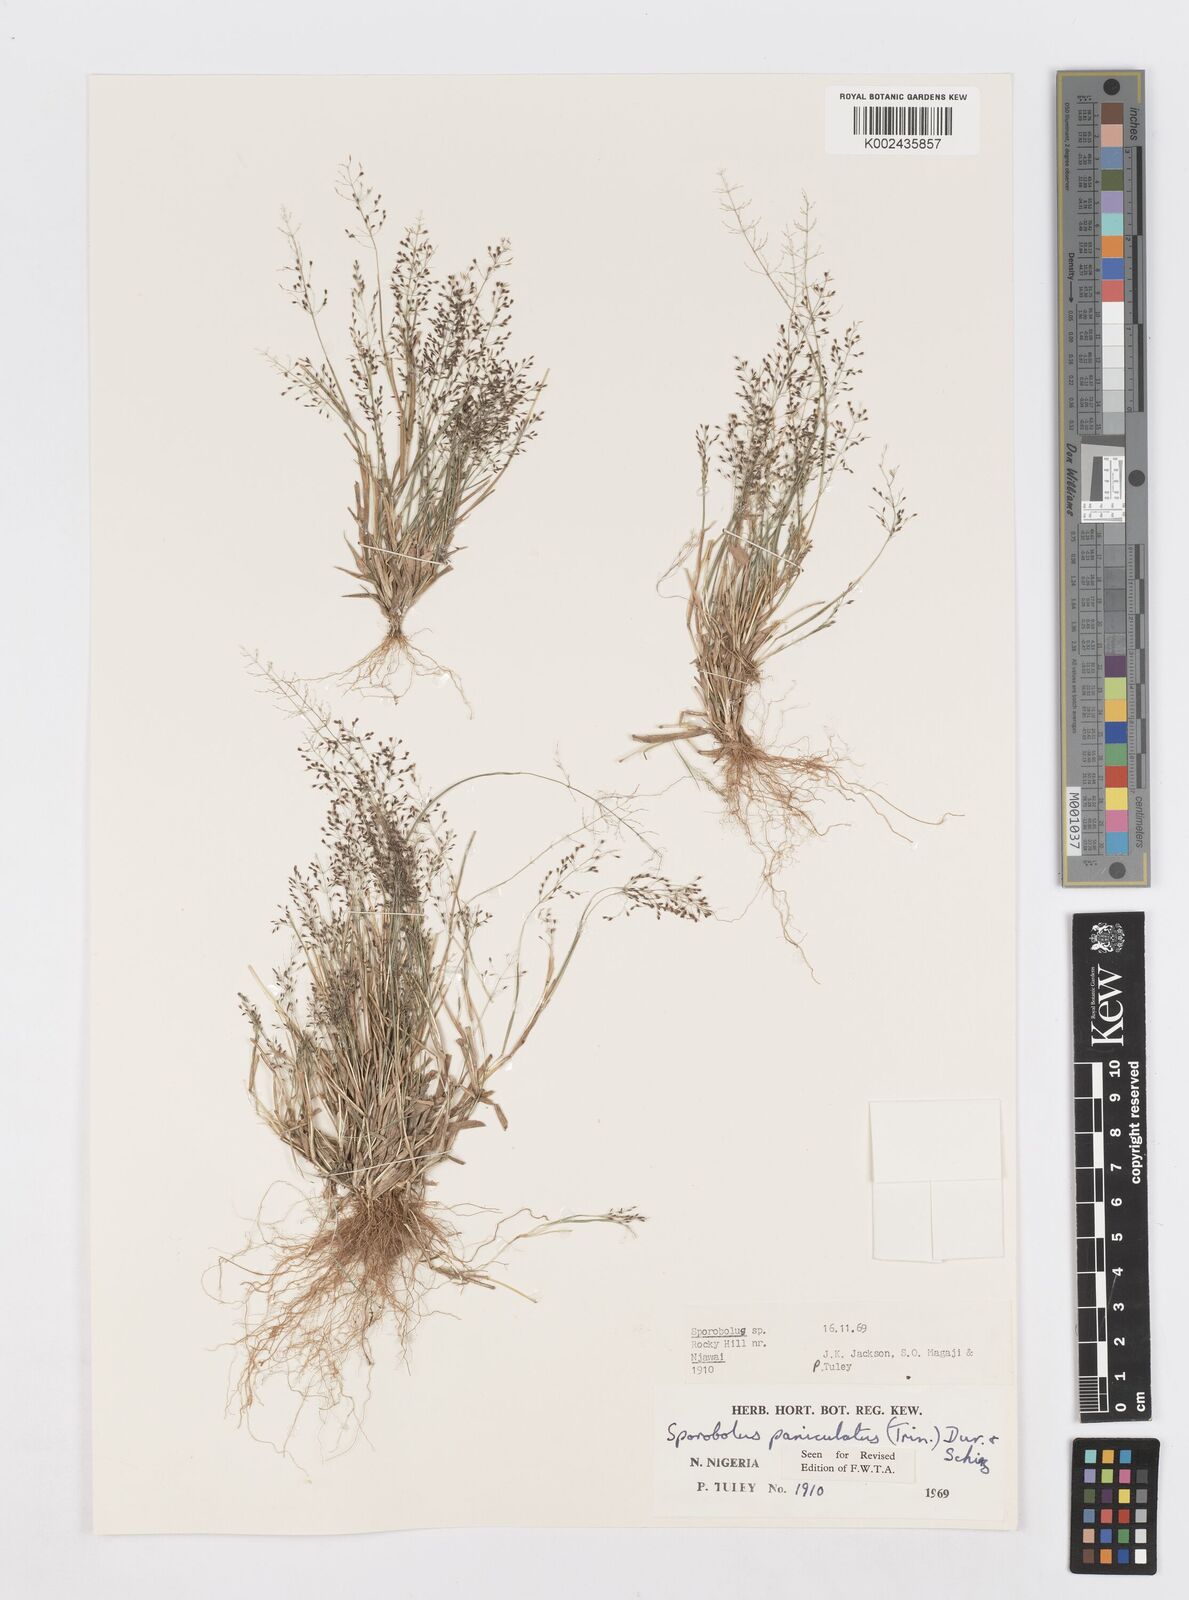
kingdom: Plantae
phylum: Tracheophyta
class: Liliopsida
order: Poales
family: Poaceae
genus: Sporobolus
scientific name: Sporobolus paniculatus
